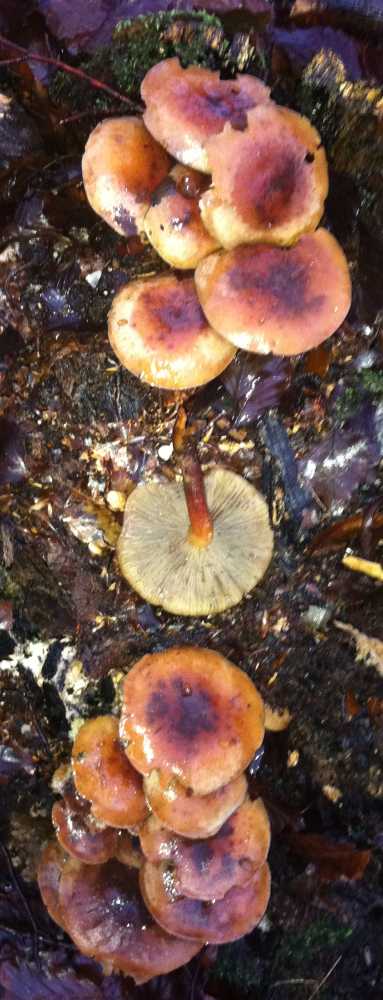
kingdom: Fungi
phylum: Basidiomycota
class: Agaricomycetes
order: Agaricales
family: Strophariaceae
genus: Hypholoma
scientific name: Hypholoma lateritium
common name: teglrød svovlhat
